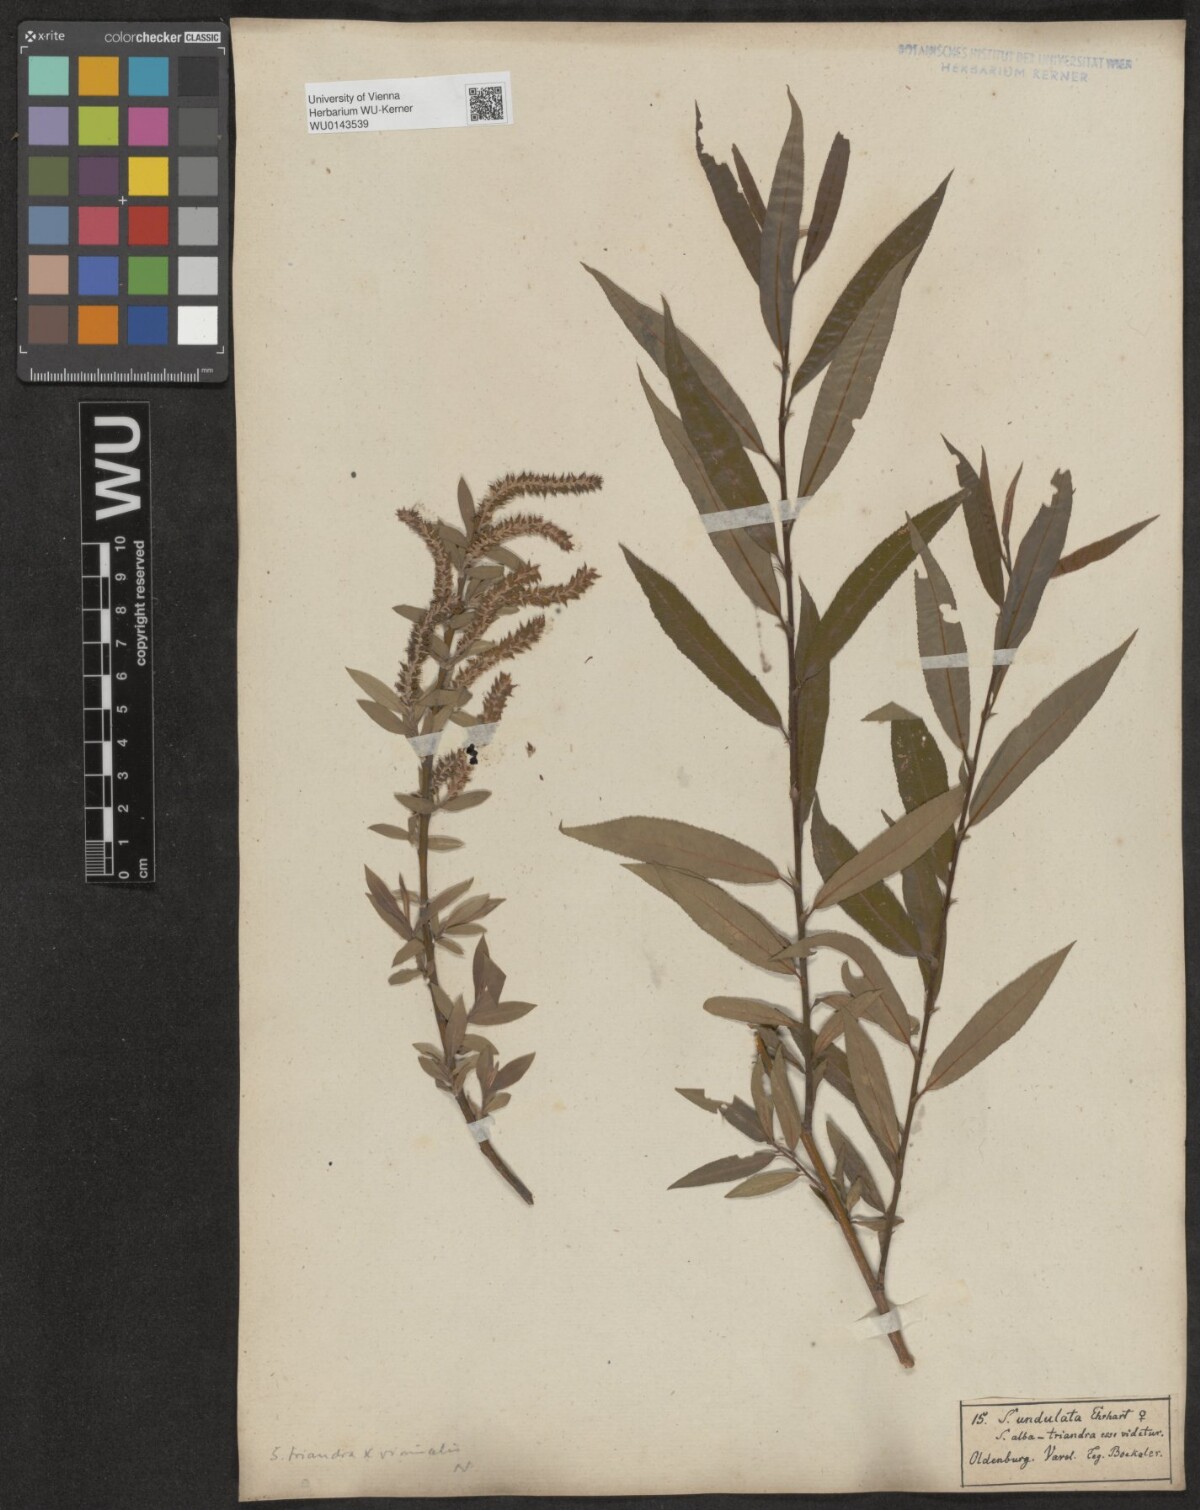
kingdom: Plantae
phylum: Tracheophyta
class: Magnoliopsida
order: Malpighiales
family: Salicaceae
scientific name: Salicaceae
